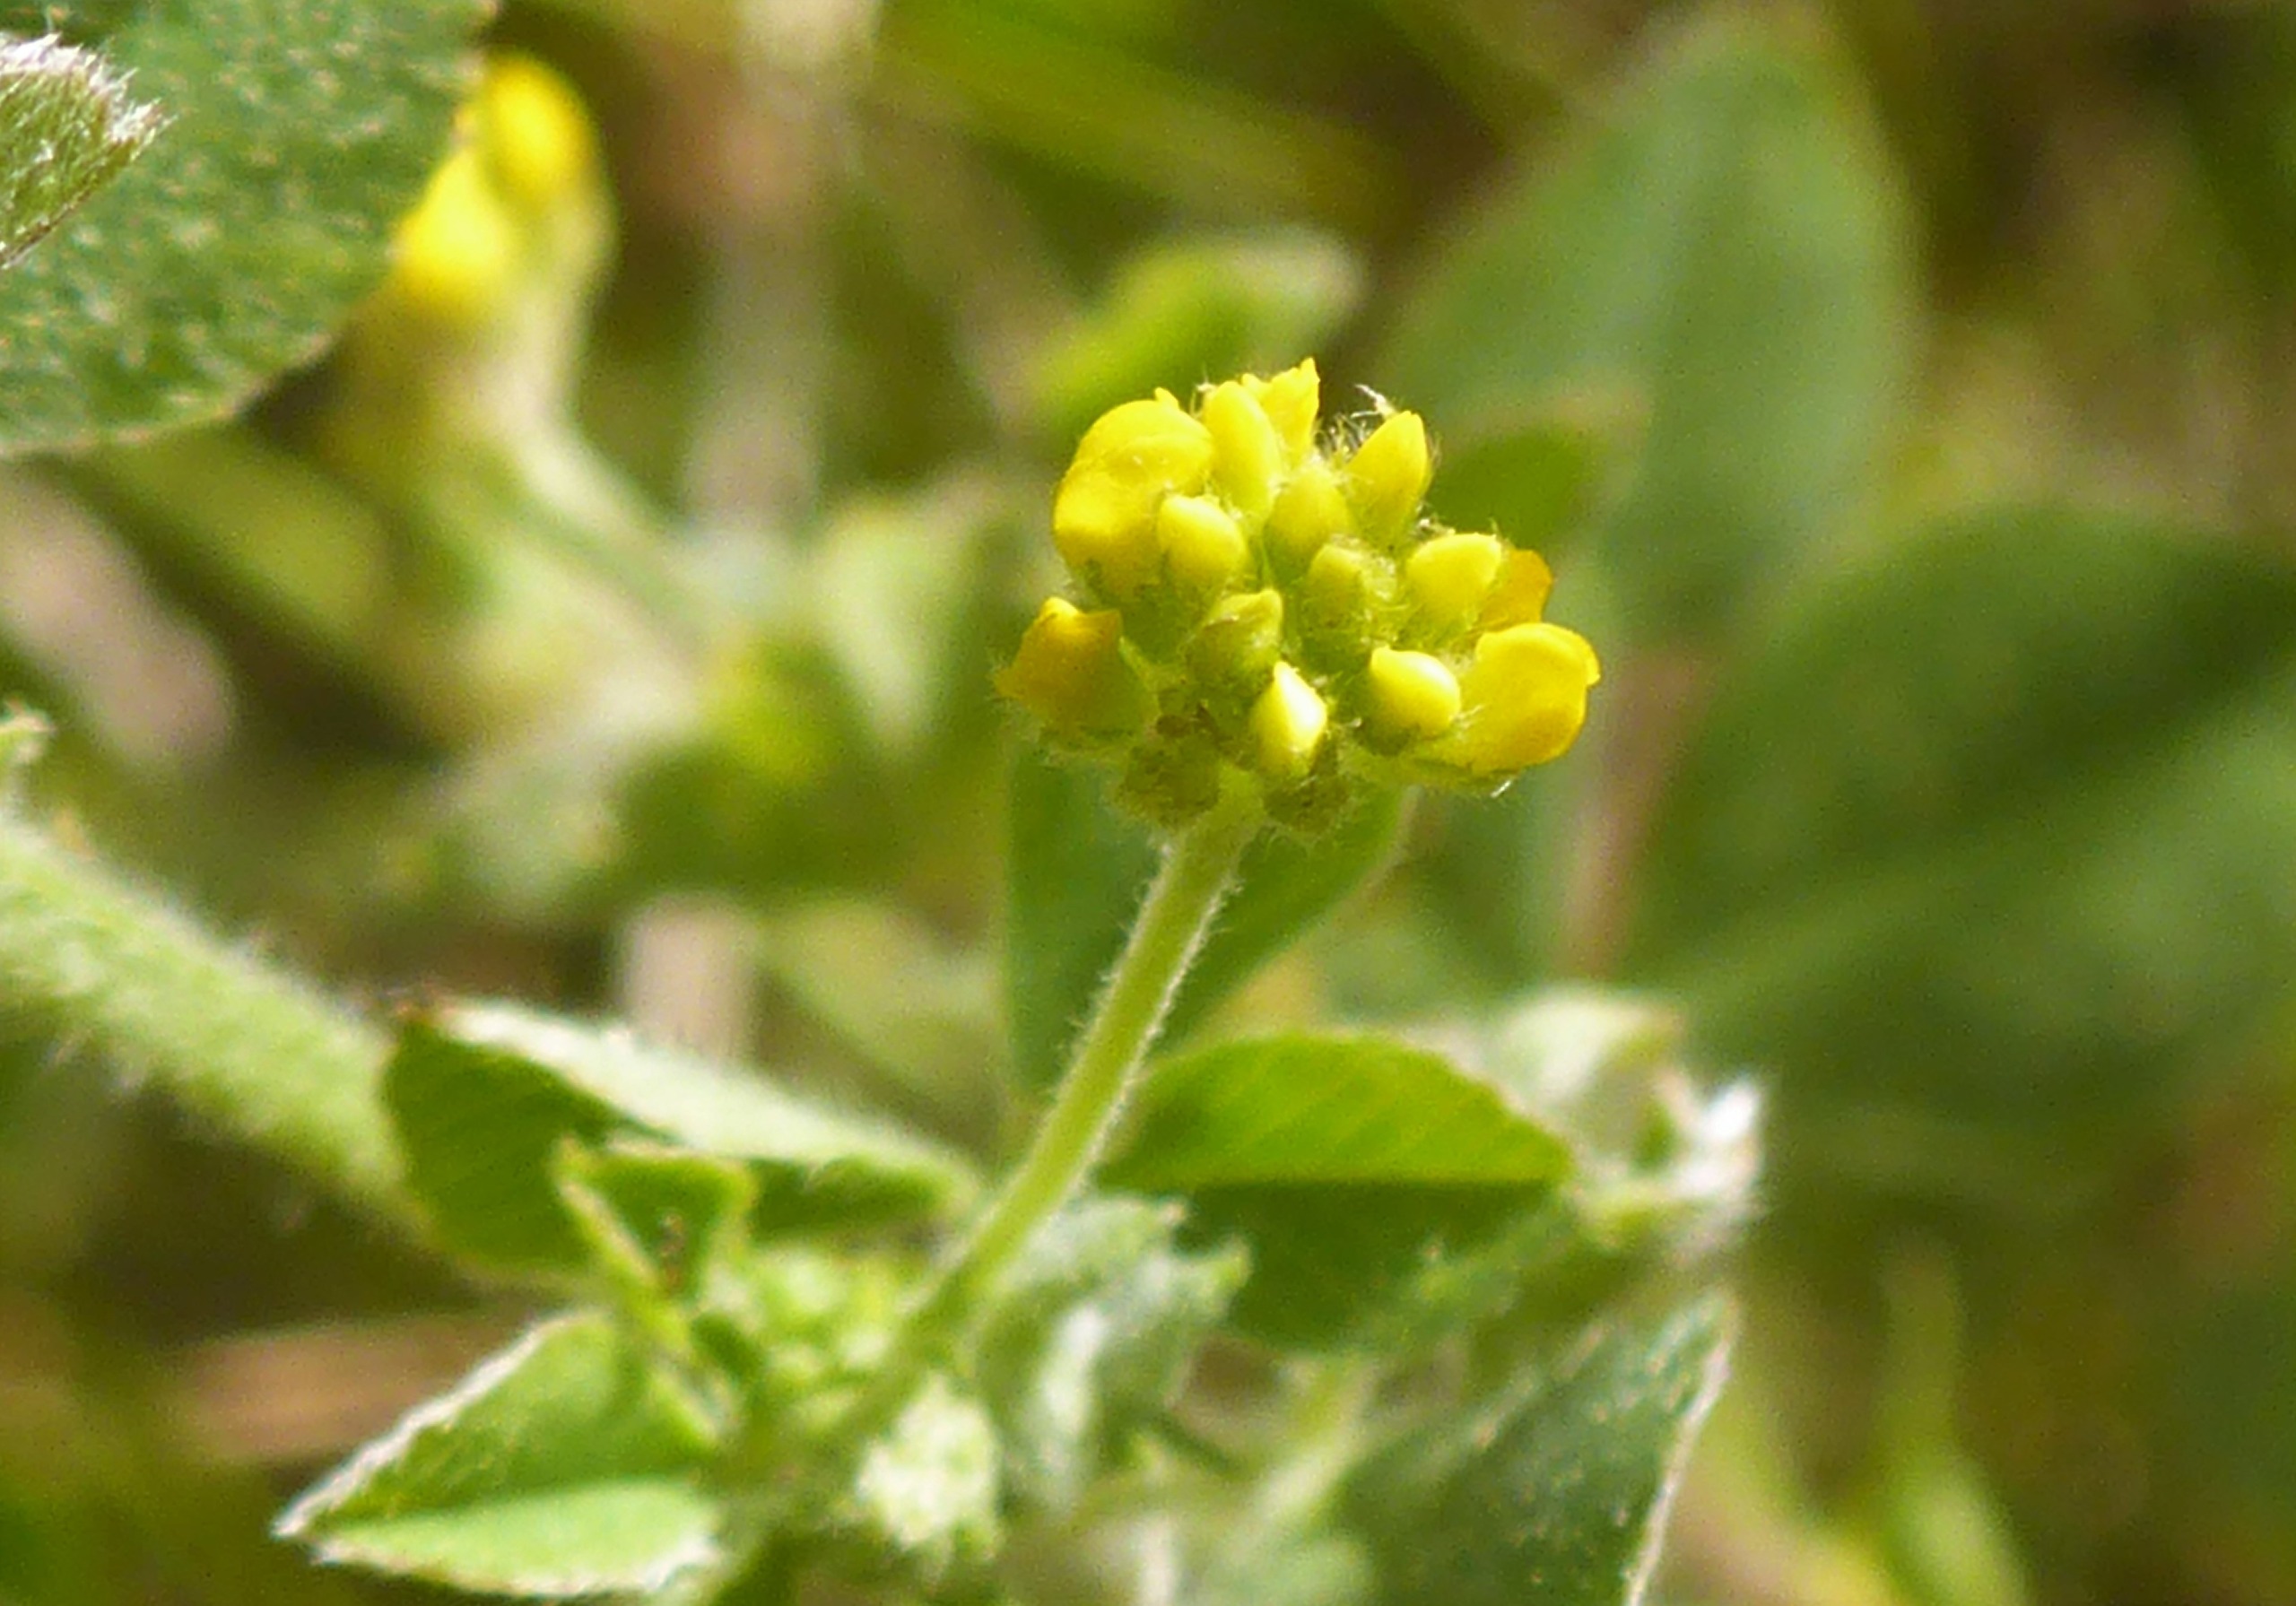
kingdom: Plantae
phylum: Tracheophyta
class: Magnoliopsida
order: Fabales
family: Fabaceae
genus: Medicago
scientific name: Medicago lupulina
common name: Humle-sneglebælg
